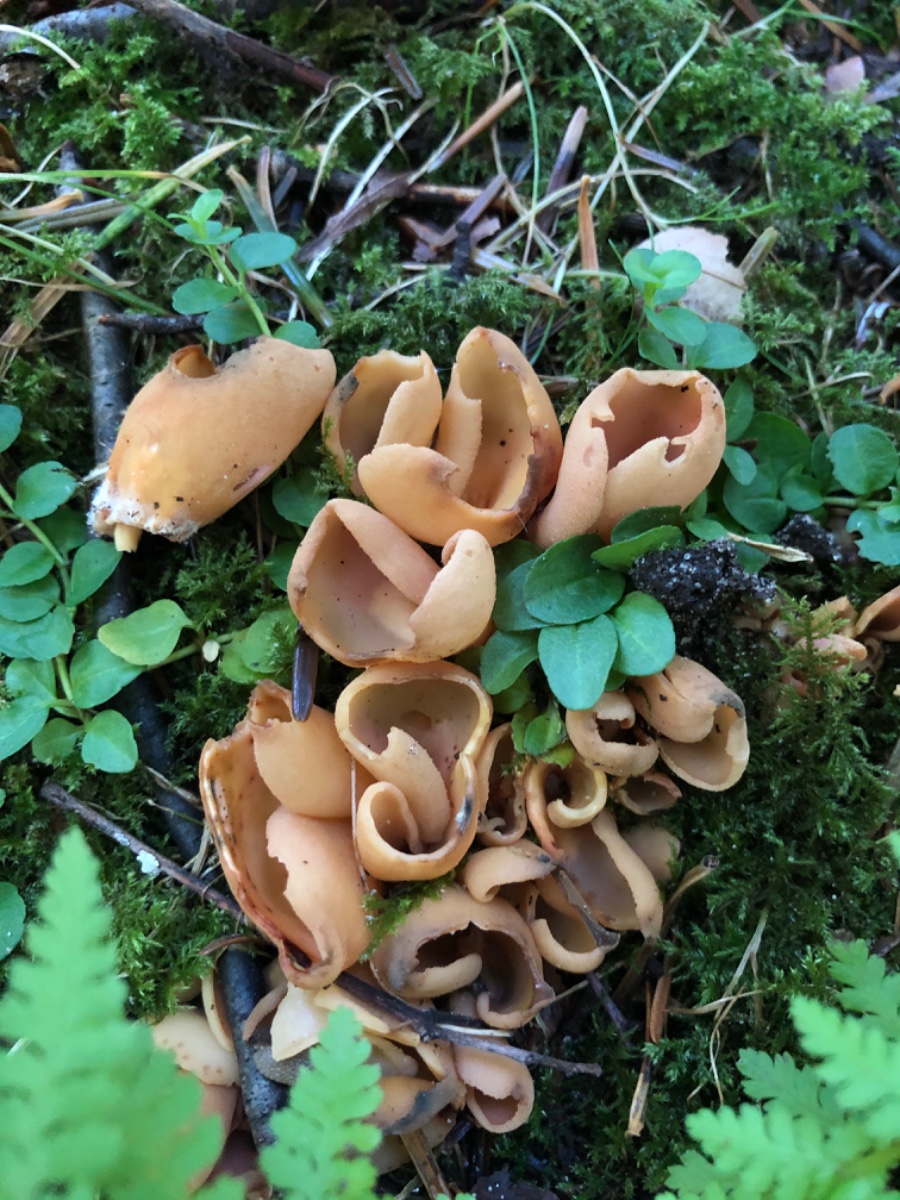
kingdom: Fungi
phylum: Ascomycota
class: Pezizomycetes
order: Pezizales
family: Otideaceae
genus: Otidea
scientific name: Otidea onotica
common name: æsel-ørebæger
